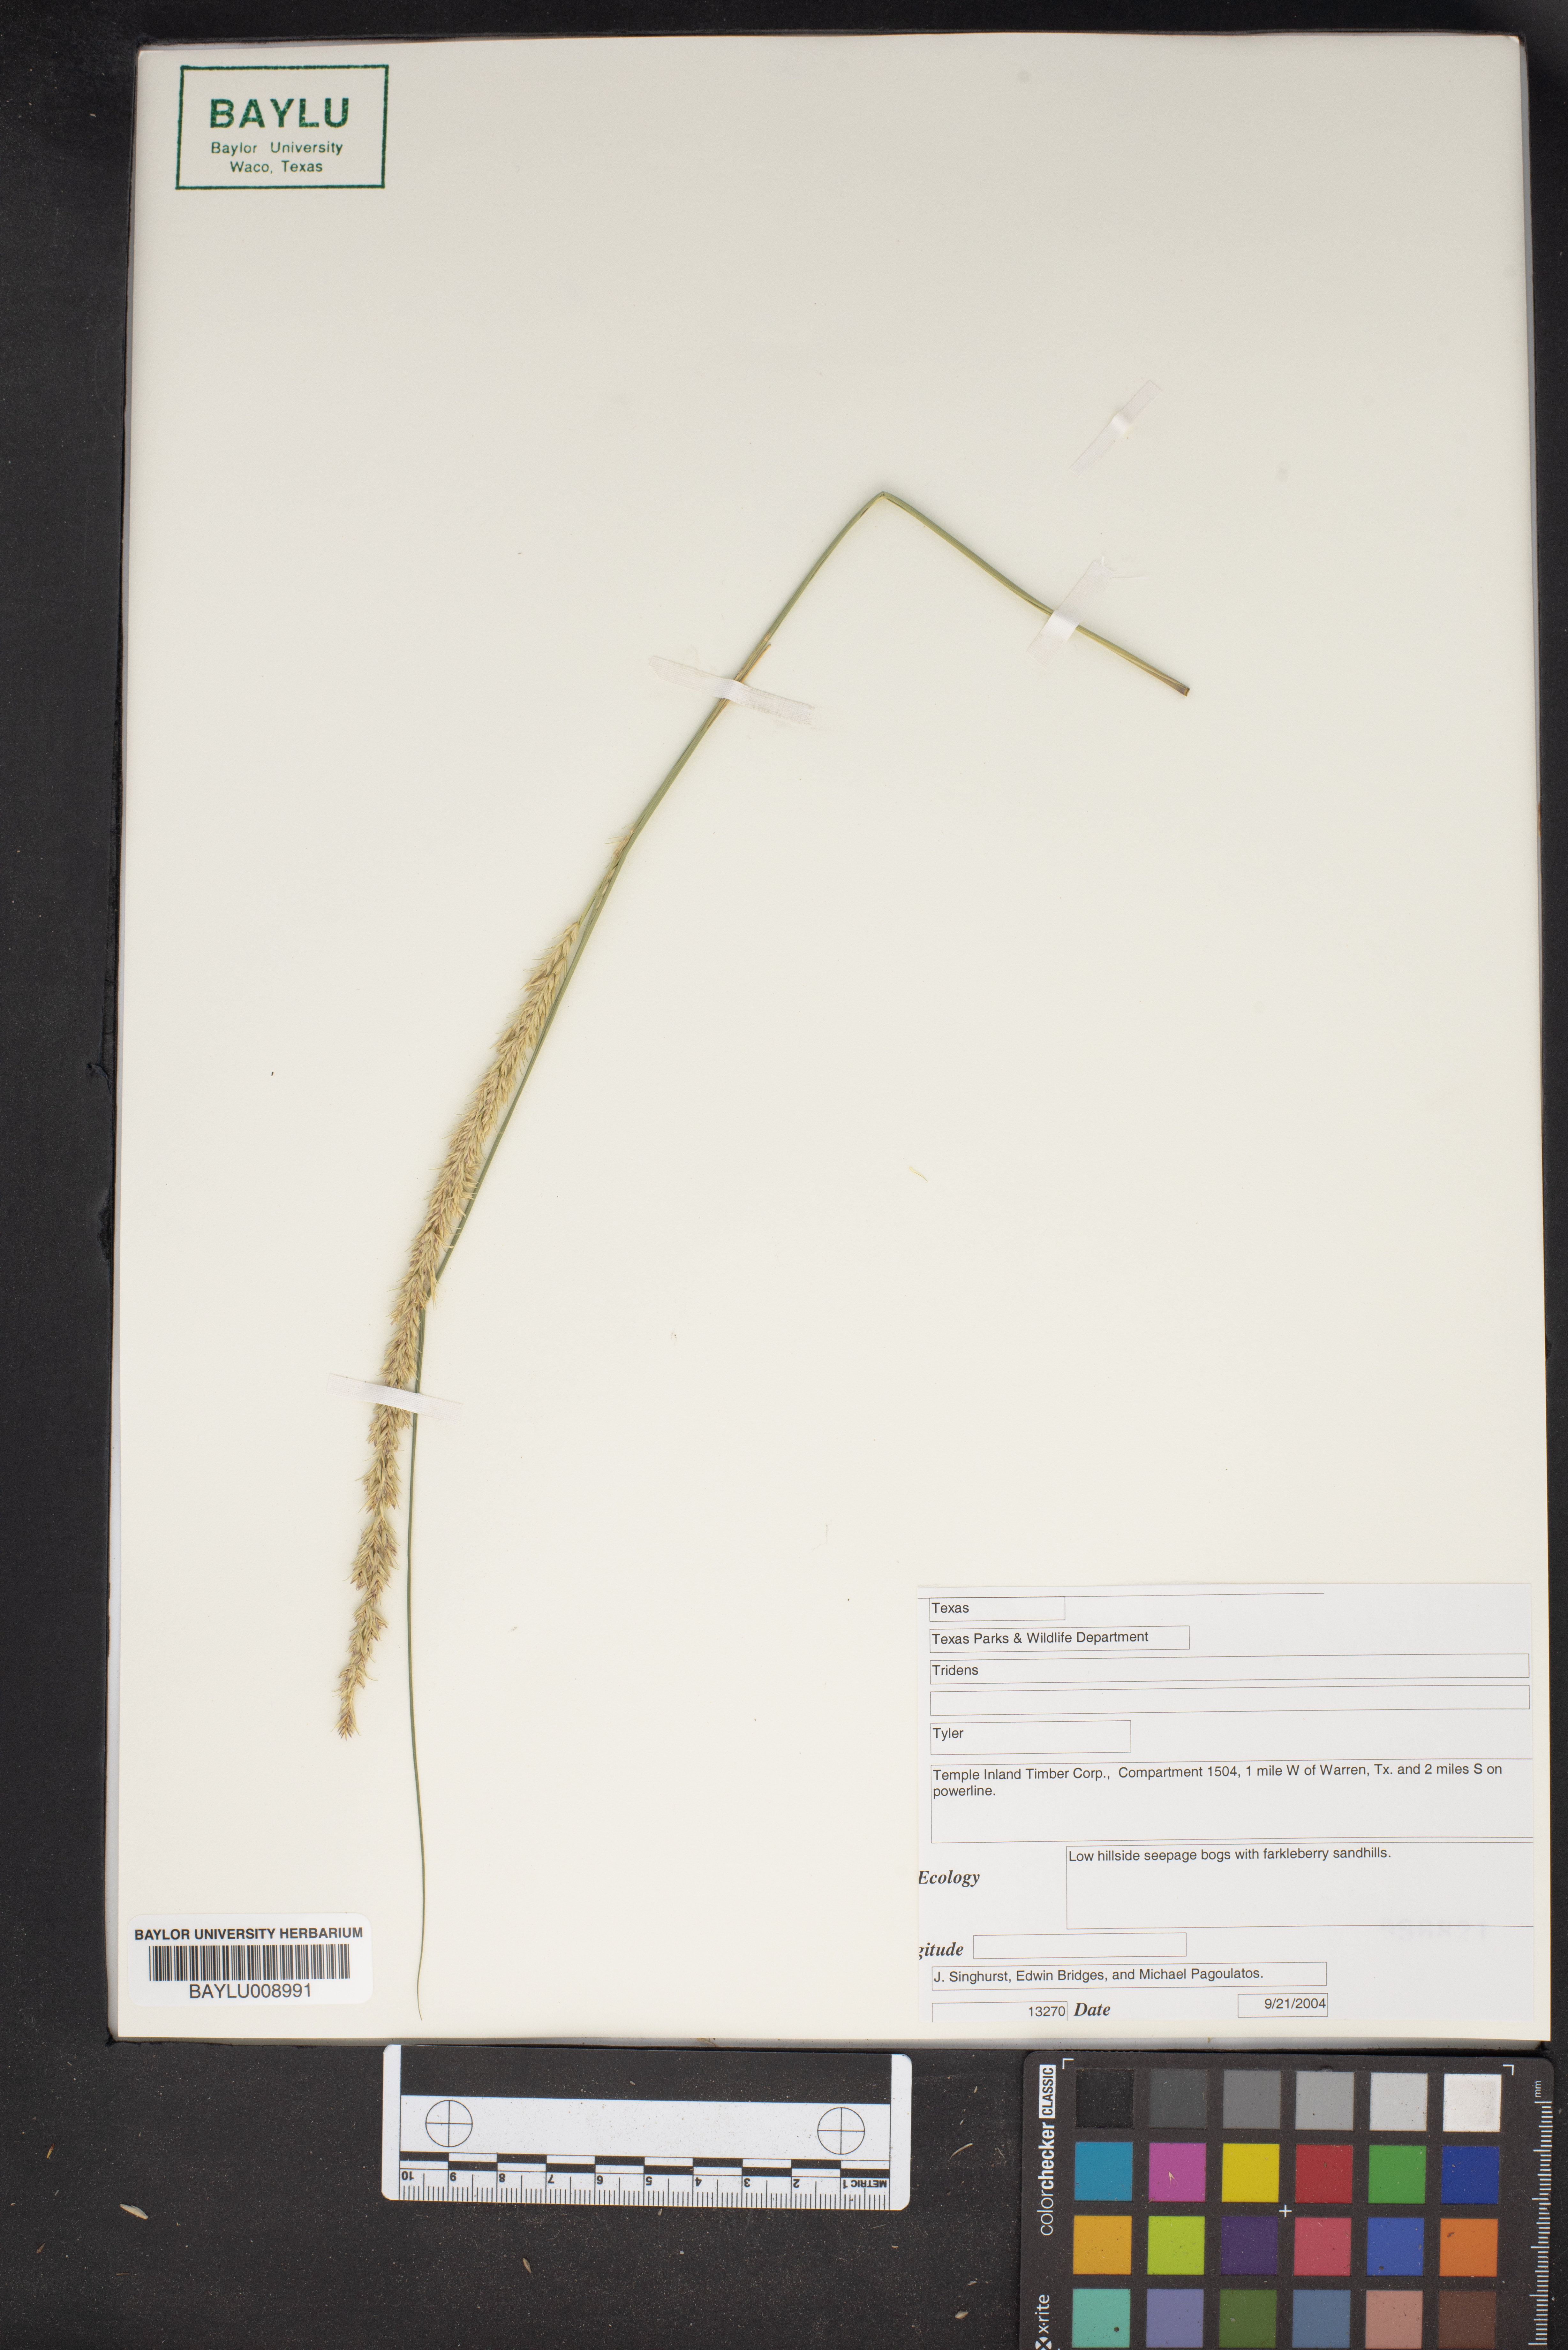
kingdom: Plantae
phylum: Tracheophyta
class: Liliopsida
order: Poales
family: Poaceae
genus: Tridens
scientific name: Tridens
